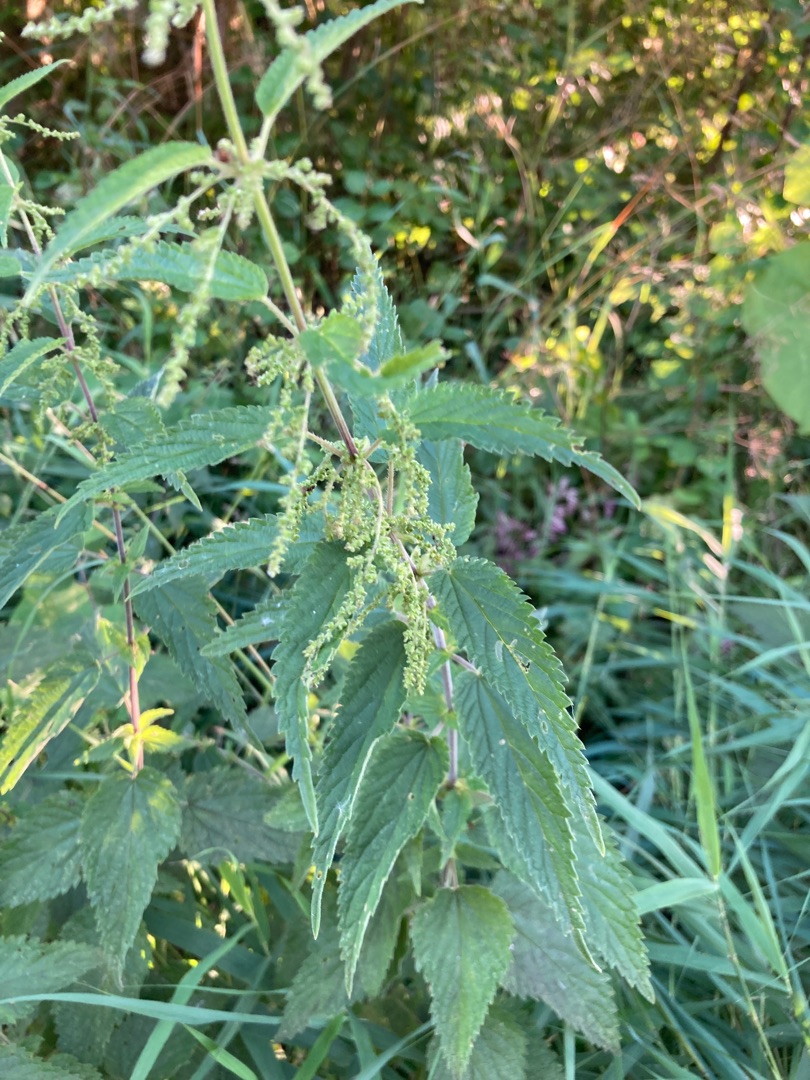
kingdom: Plantae
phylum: Tracheophyta
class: Magnoliopsida
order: Rosales
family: Urticaceae
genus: Urtica
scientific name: Urtica dioica
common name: Stor nælde
